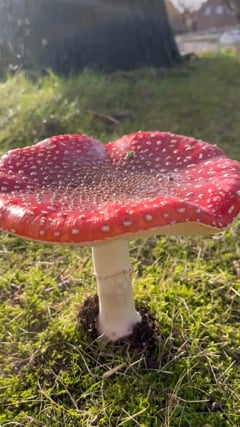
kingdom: Fungi
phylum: Basidiomycota
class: Agaricomycetes
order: Agaricales
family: Amanitaceae
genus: Amanita
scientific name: Amanita muscaria
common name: Fly agaric
